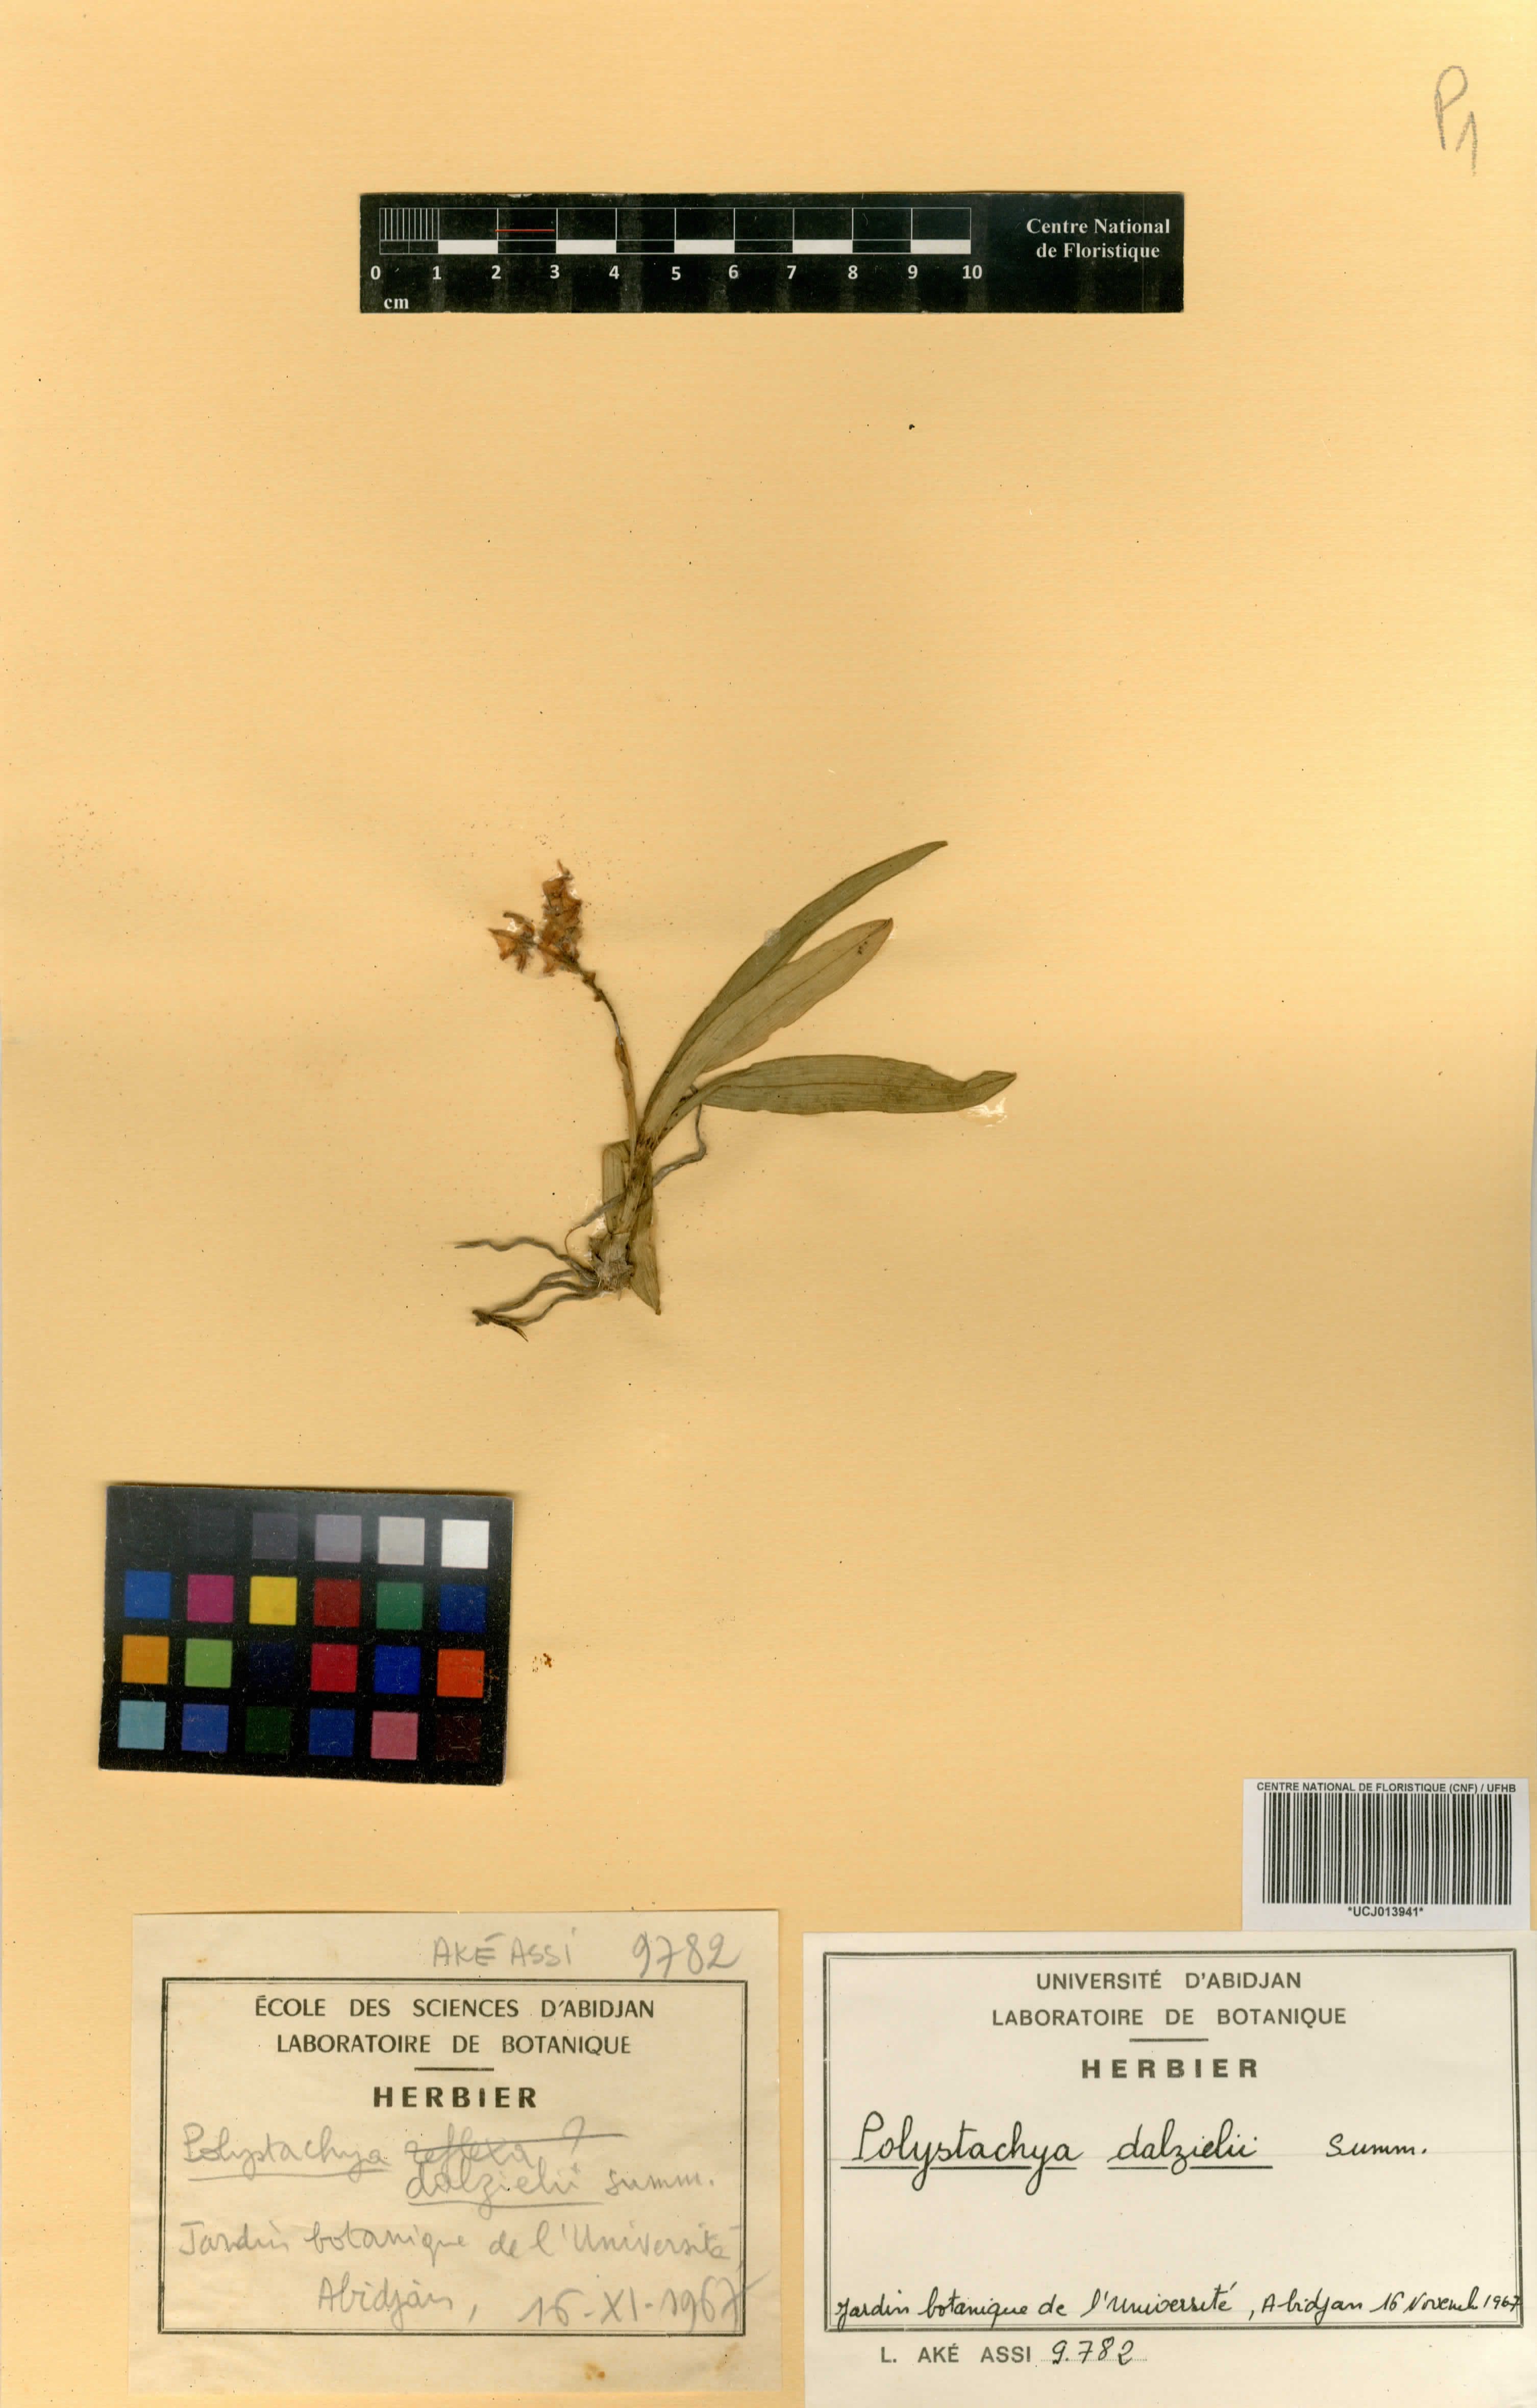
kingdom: Plantae
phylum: Tracheophyta
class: Liliopsida
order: Asparagales
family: Orchidaceae
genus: Polystachya
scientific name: Polystachya dalzielii
